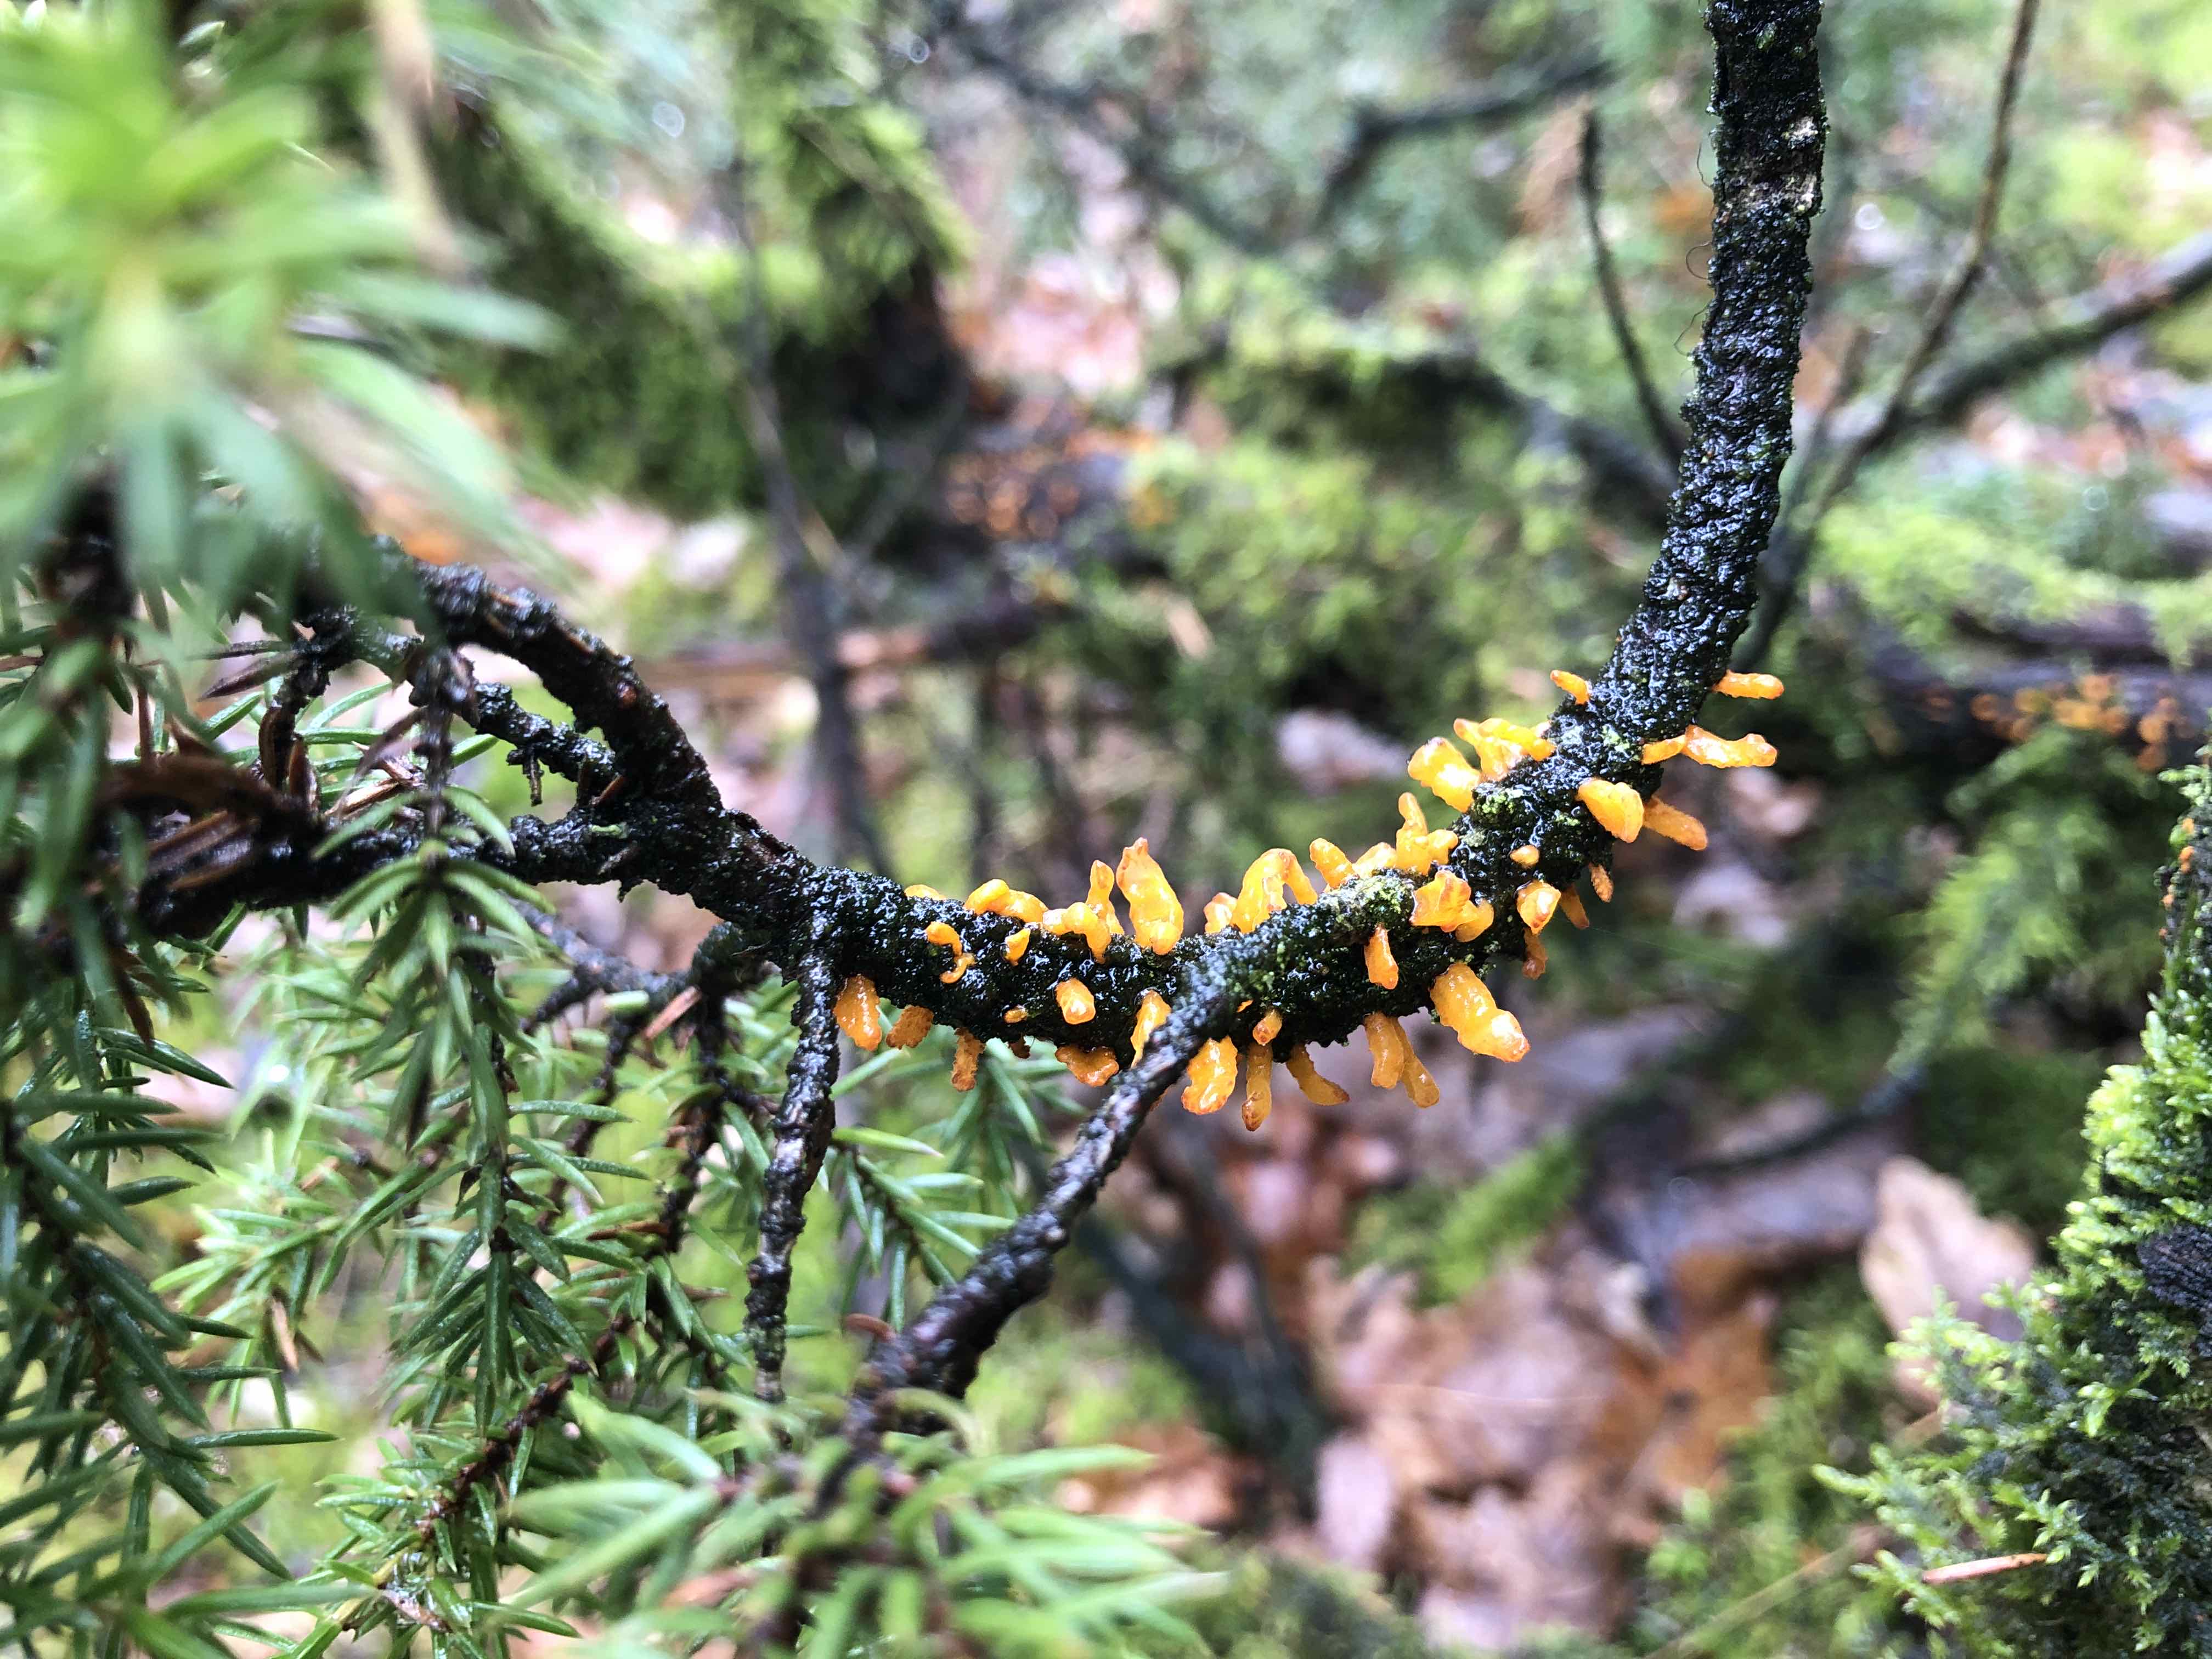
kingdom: Fungi
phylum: Basidiomycota
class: Pucciniomycetes
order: Pucciniales
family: Gymnosporangiaceae
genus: Gymnosporangium
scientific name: Gymnosporangium clavariiforme
